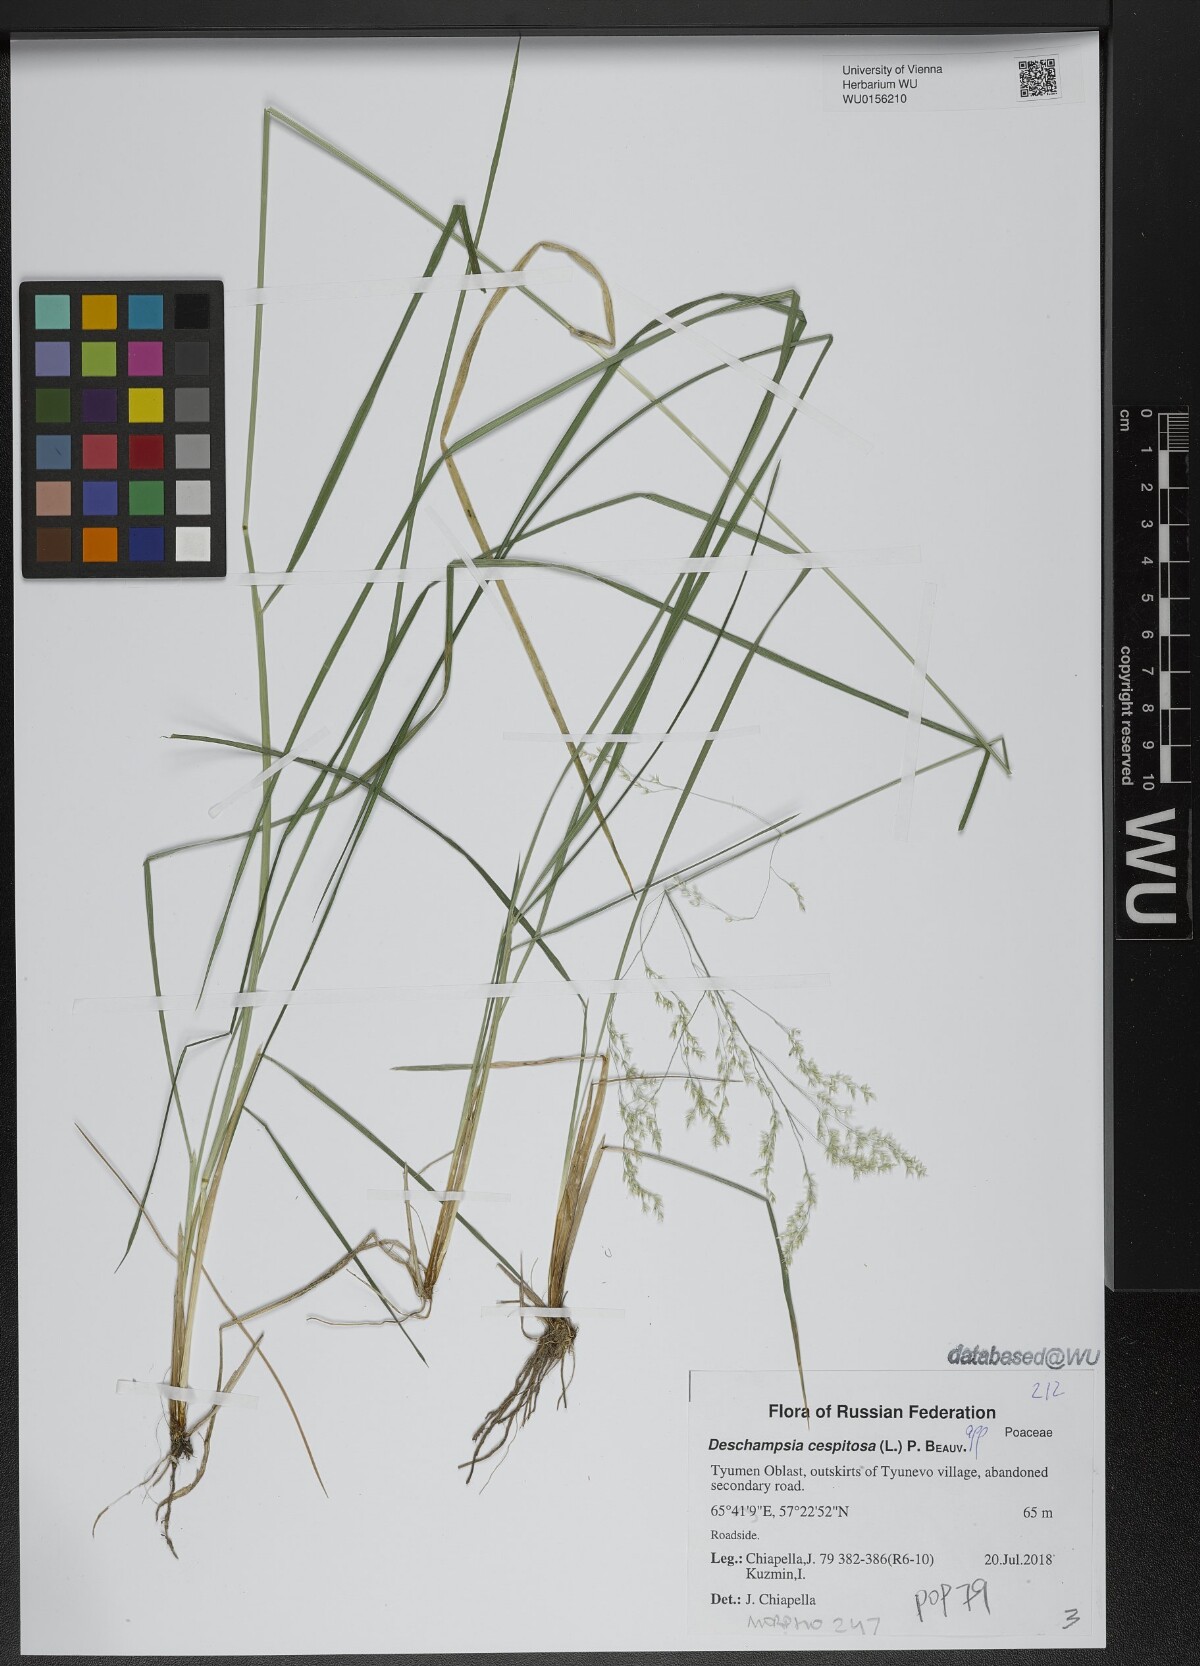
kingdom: Plantae
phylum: Tracheophyta
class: Liliopsida
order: Poales
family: Poaceae
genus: Deschampsia
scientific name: Deschampsia cespitosa
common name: Tufted hair-grass
